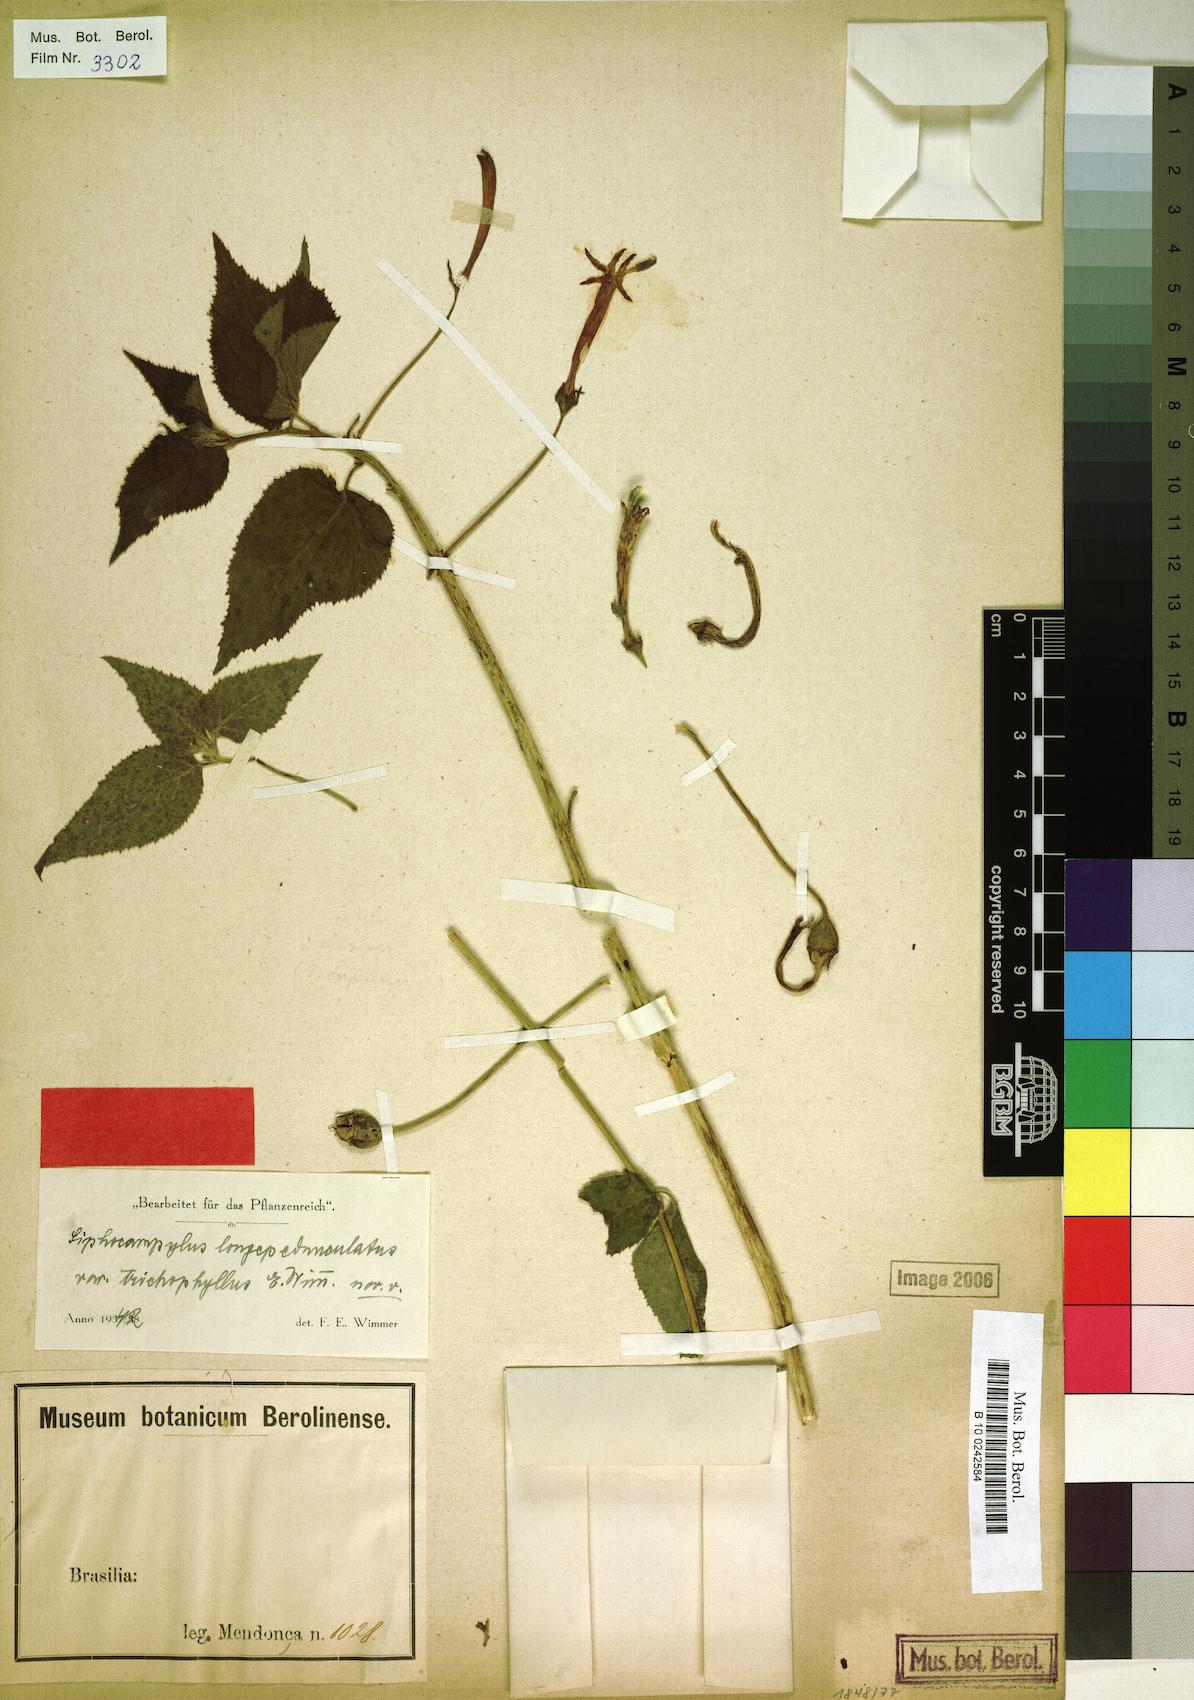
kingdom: Plantae
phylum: Tracheophyta
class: Magnoliopsida
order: Asterales
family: Campanulaceae
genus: Siphocampylus
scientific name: Siphocampylus longipedunculatus
